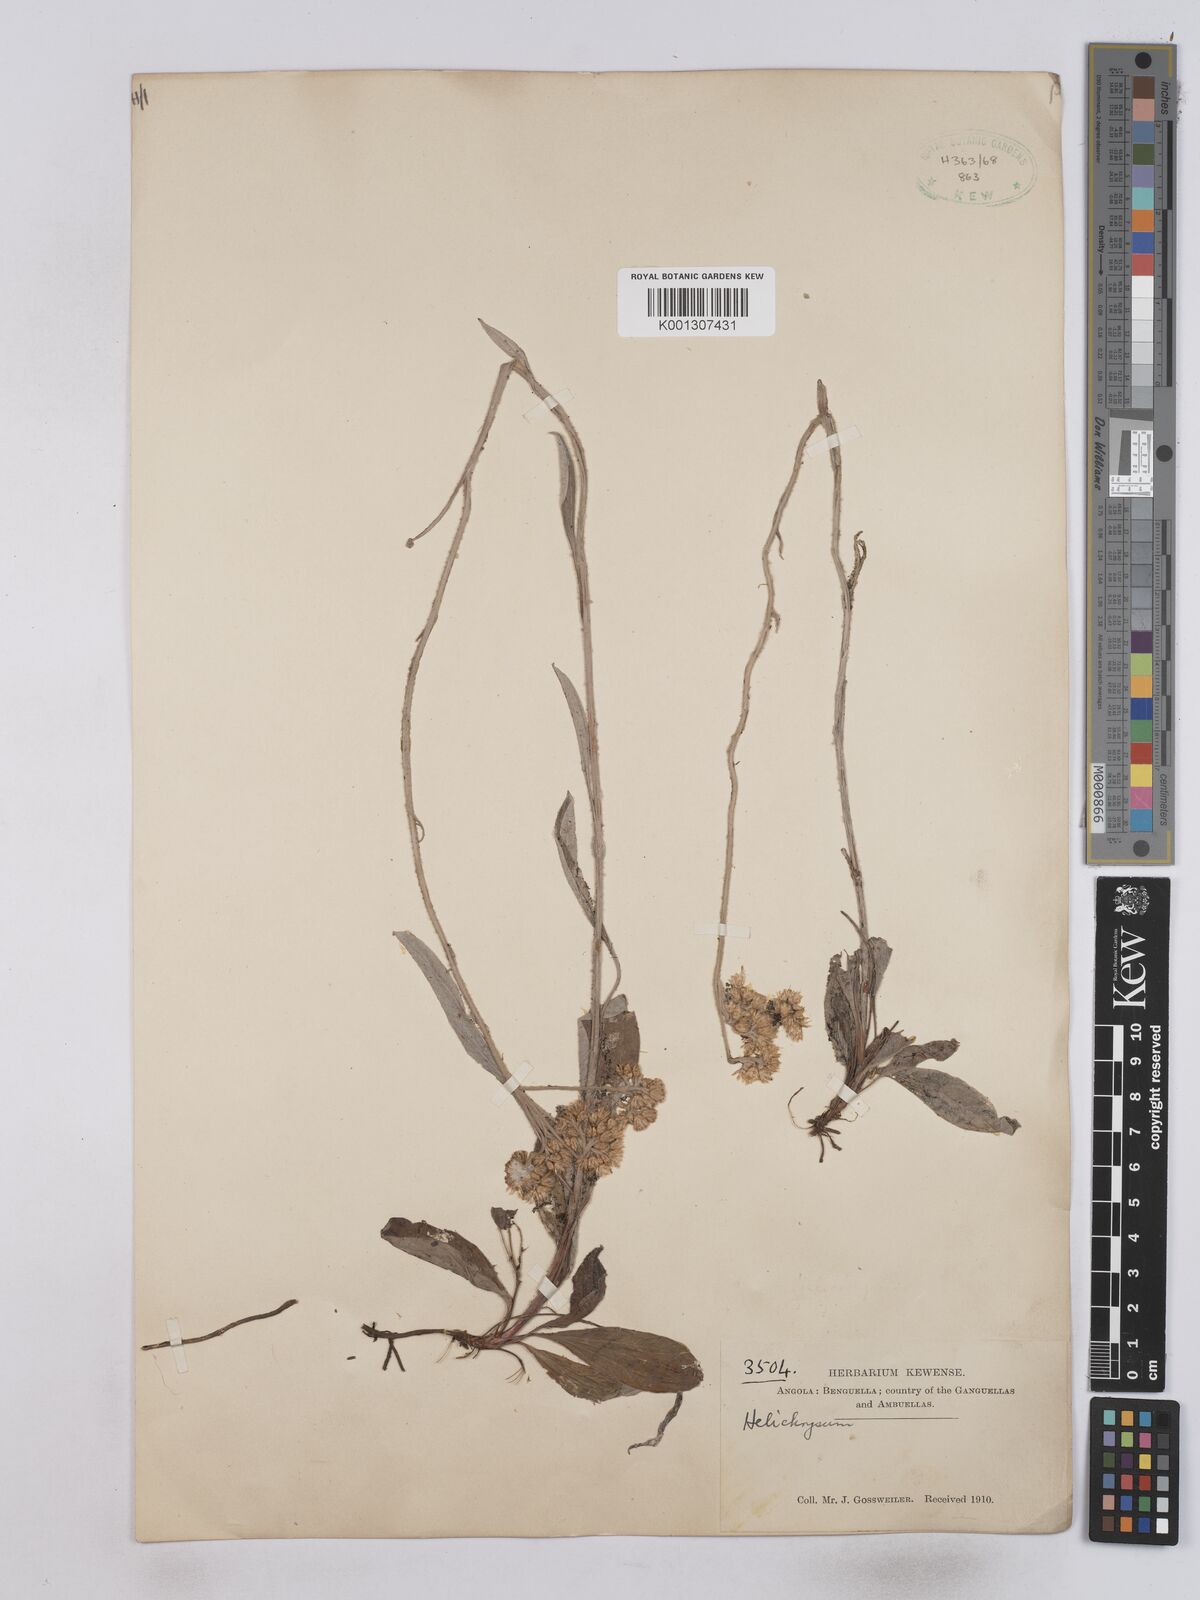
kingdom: Plantae
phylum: Tracheophyta
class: Magnoliopsida
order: Asterales
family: Asteraceae
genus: Helichrysum
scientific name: Helichrysum
